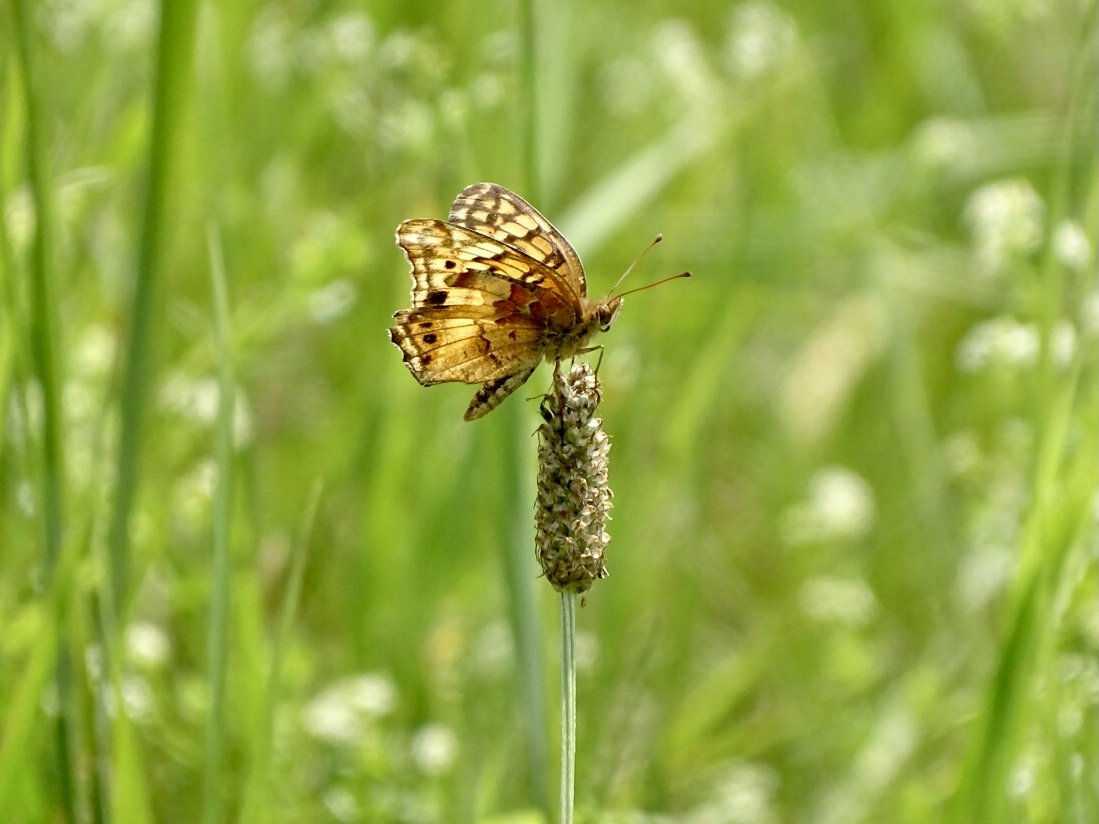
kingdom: Animalia
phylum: Arthropoda
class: Insecta
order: Lepidoptera
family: Nymphalidae
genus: Euptoieta
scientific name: Euptoieta claudia
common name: Variegated Fritillary
